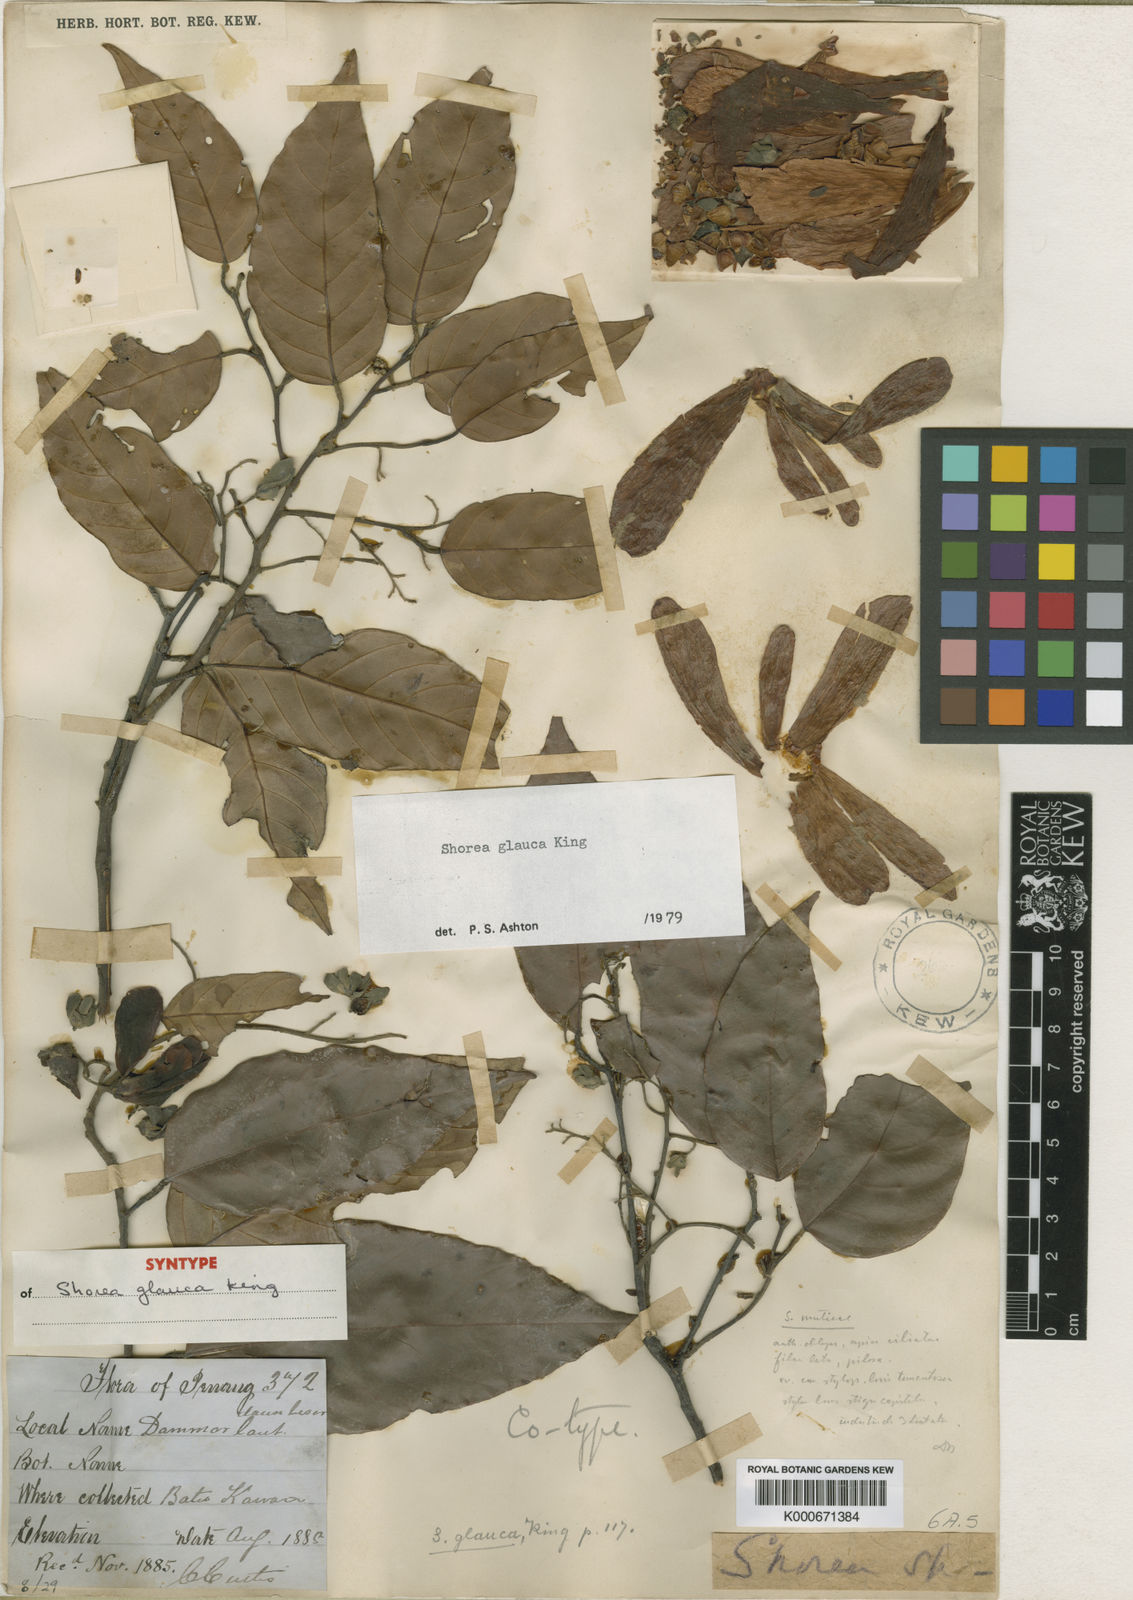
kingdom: Plantae
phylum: Tracheophyta
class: Magnoliopsida
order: Malvales
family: Dipterocarpaceae
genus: Shorea
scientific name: Shorea glauca
